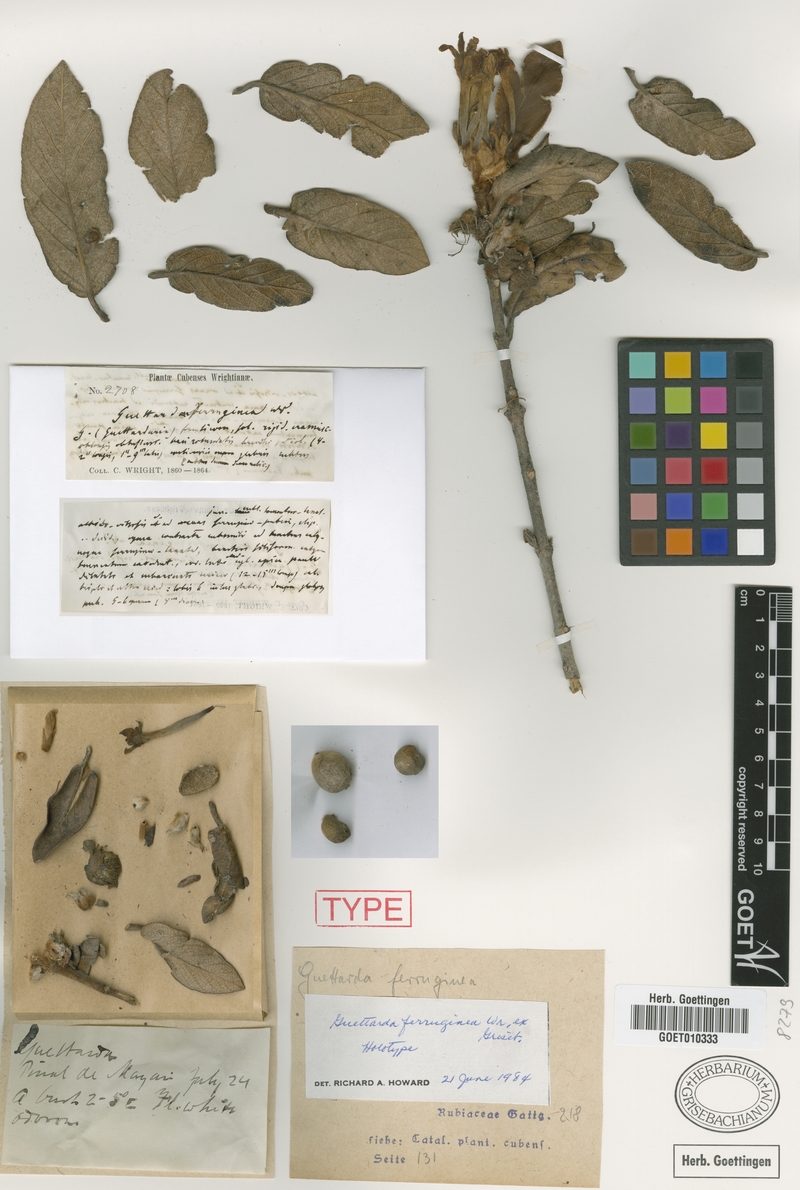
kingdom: Plantae
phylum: Tracheophyta
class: Magnoliopsida
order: Gentianales
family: Rubiaceae
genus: Guettarda
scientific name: Guettarda ferruginea
